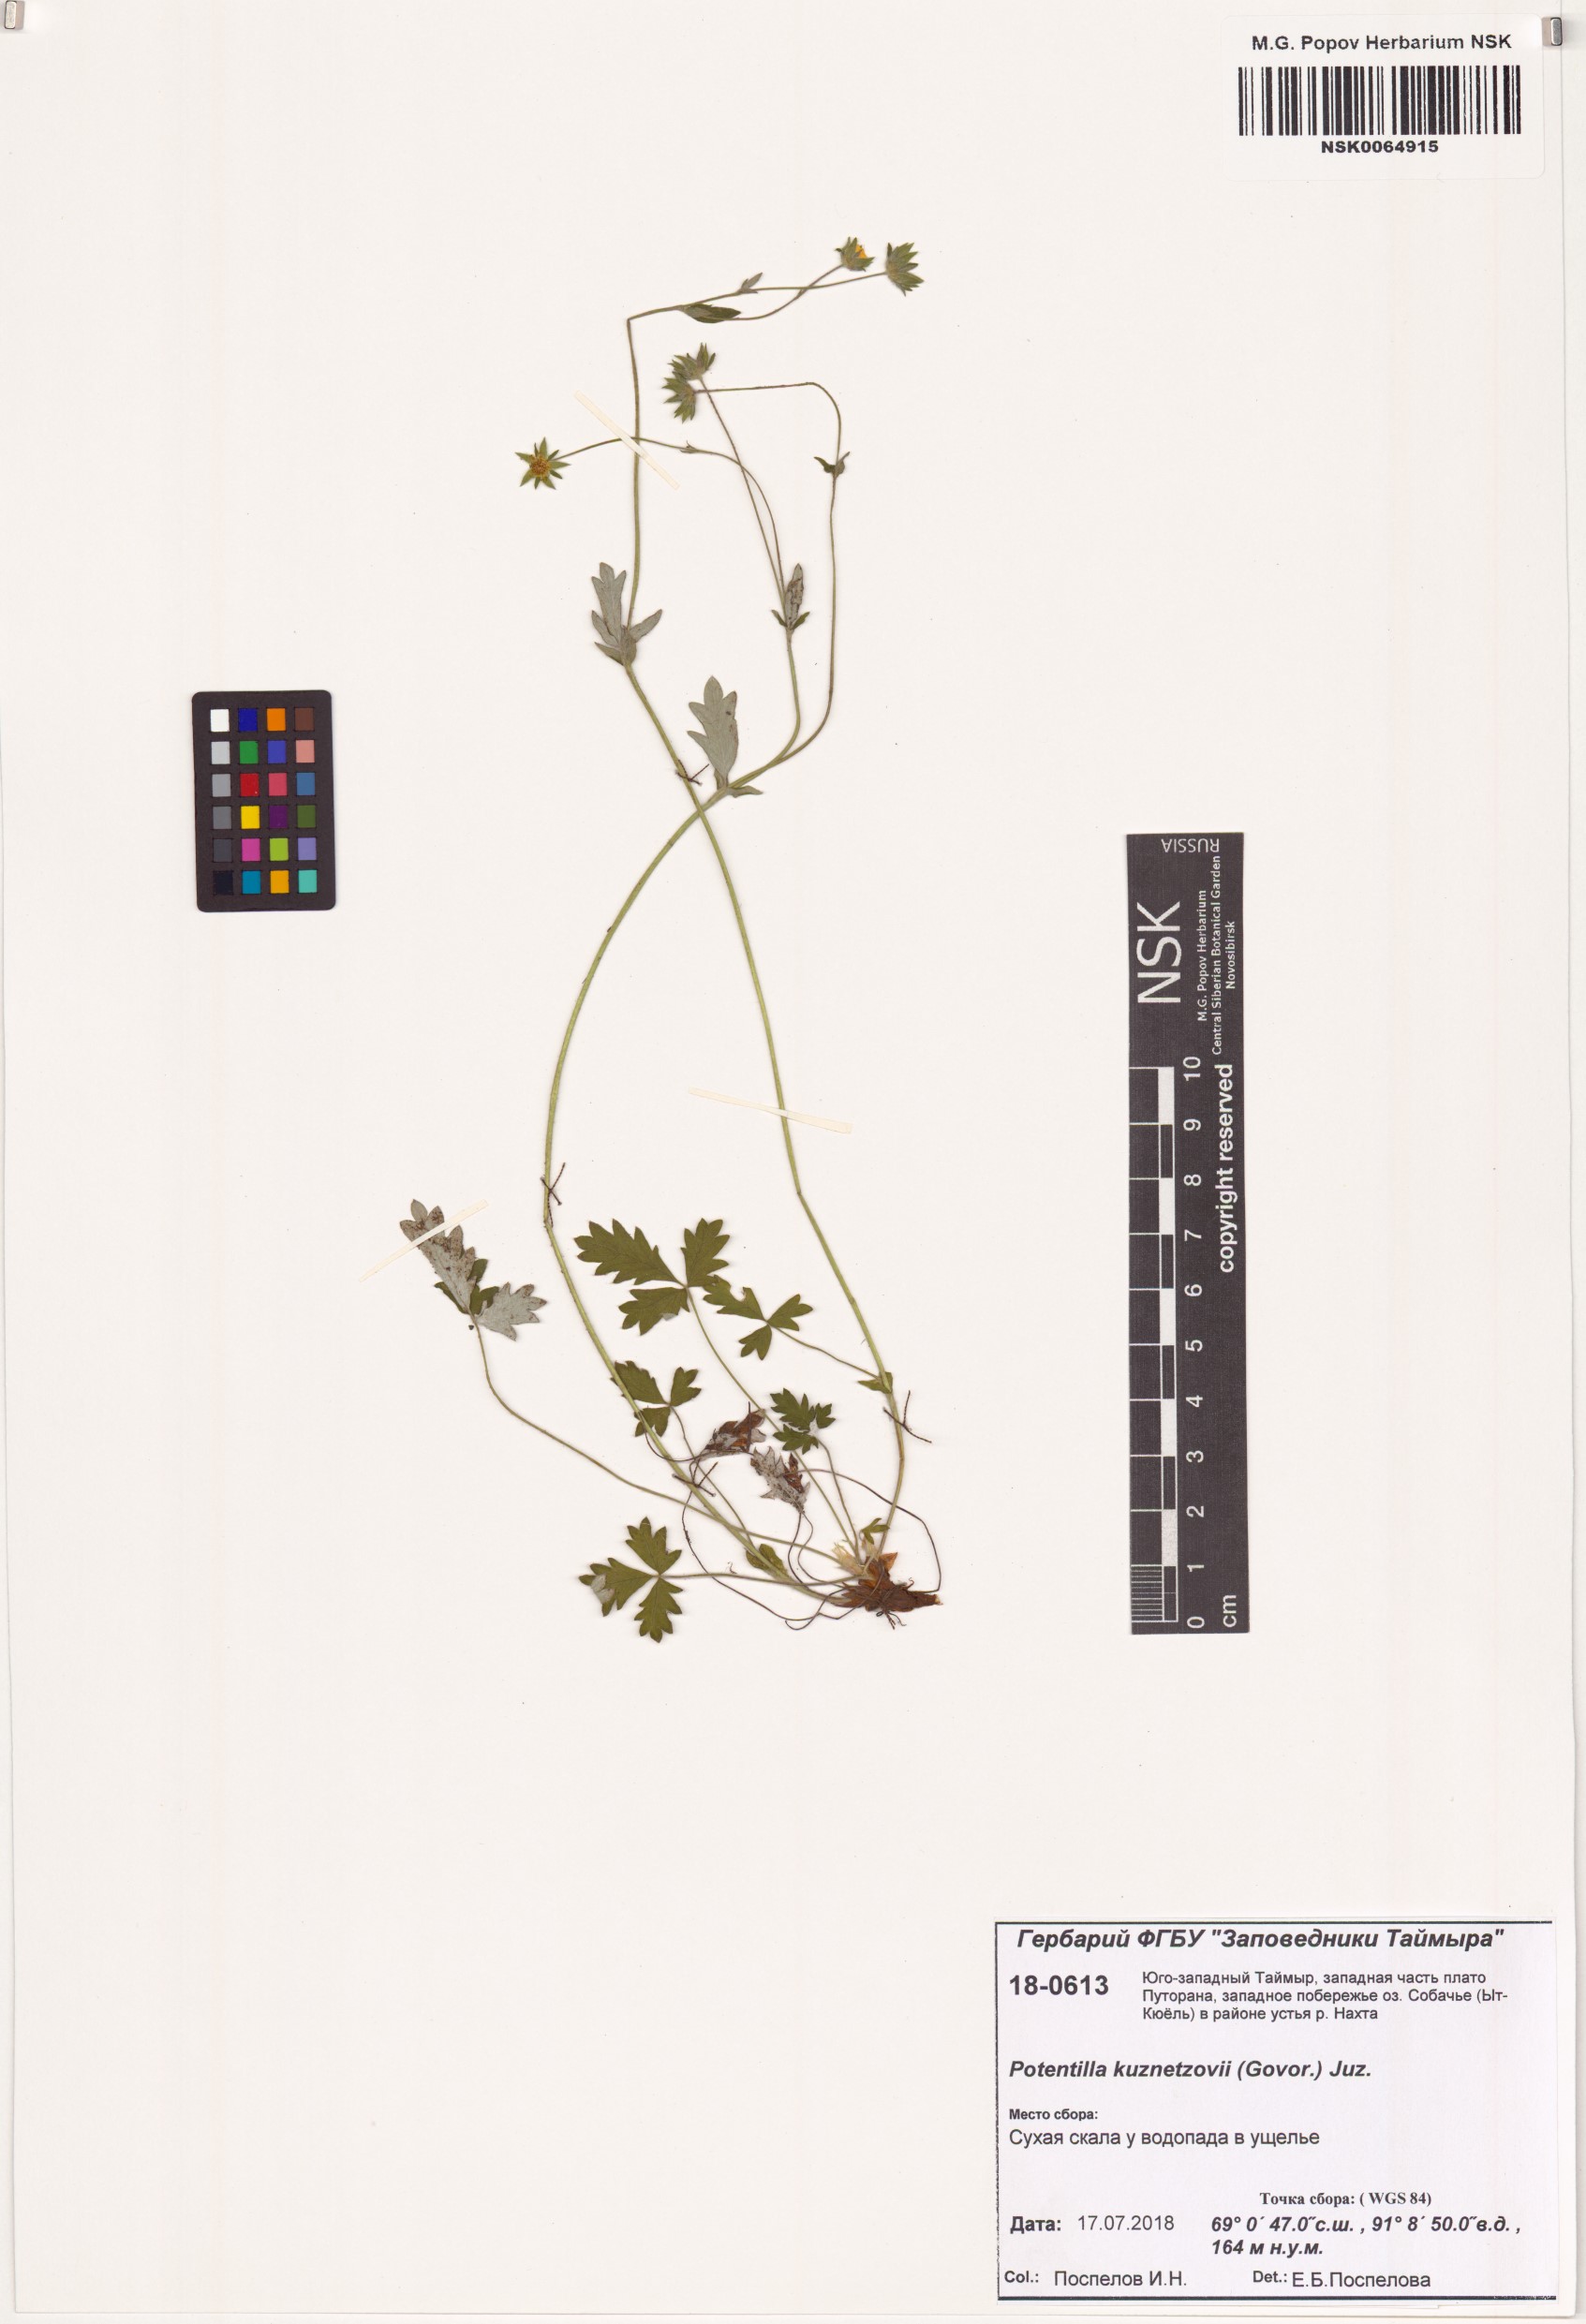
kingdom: Plantae
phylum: Tracheophyta
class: Magnoliopsida
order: Rosales
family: Rosaceae
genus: Potentilla
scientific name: Potentilla chamissonis
